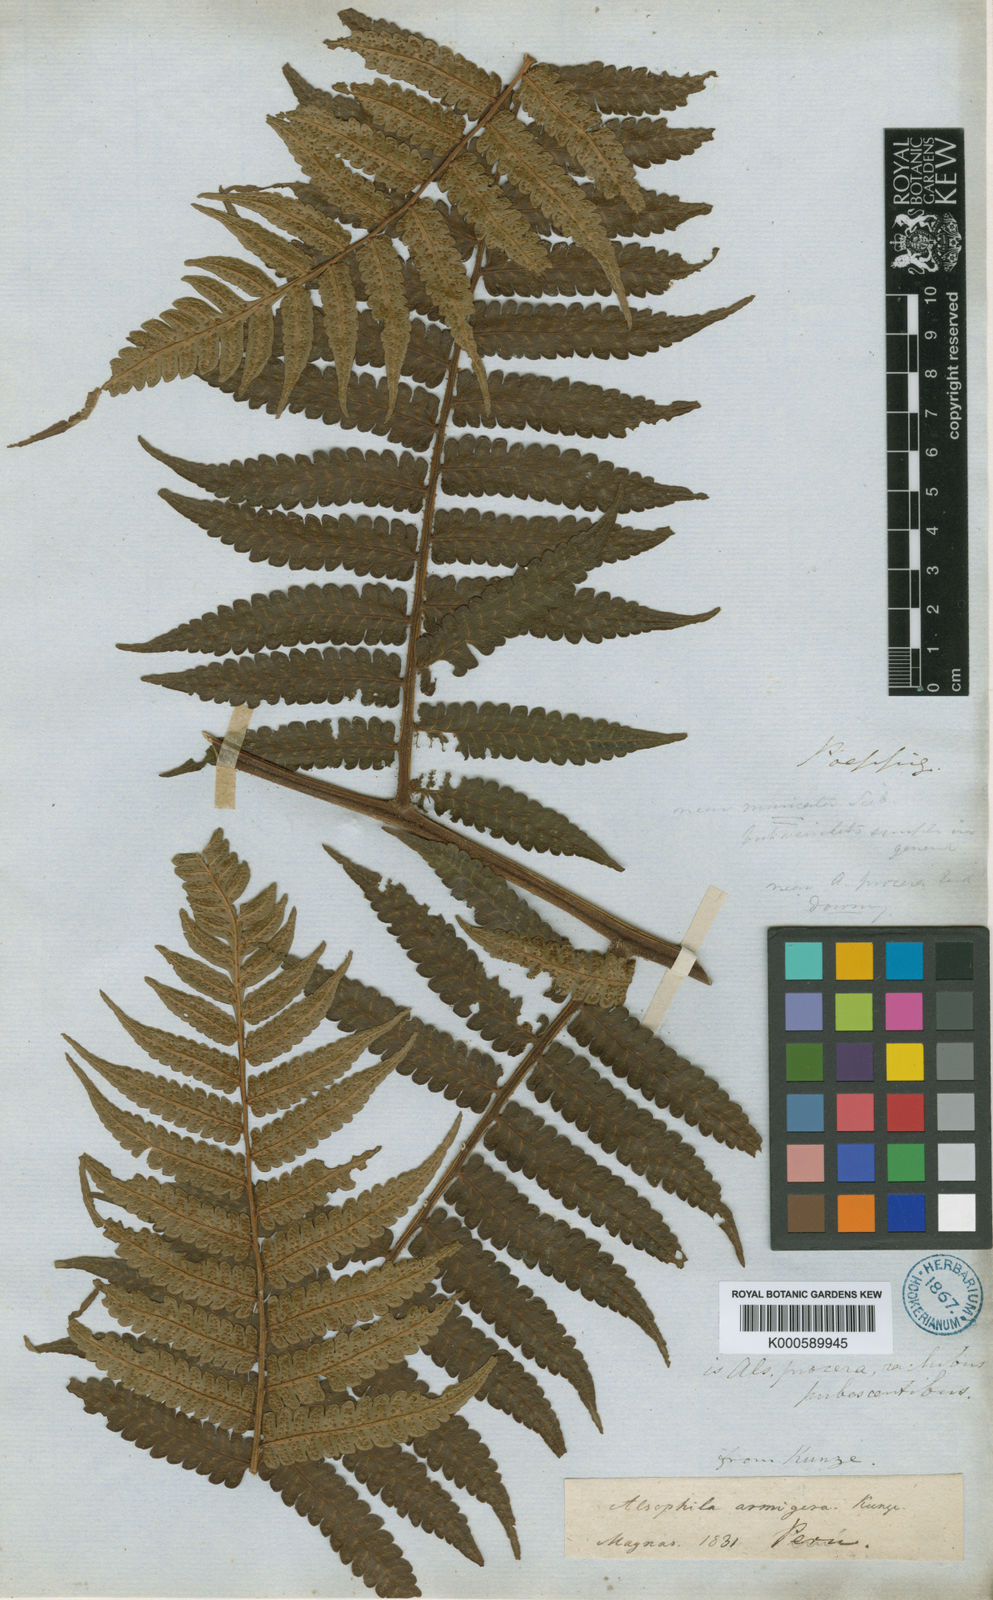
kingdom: Plantae
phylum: Tracheophyta
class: Polypodiopsida
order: Cyatheales
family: Cyatheaceae
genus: Cyathea
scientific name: Cyathea dombeyi
